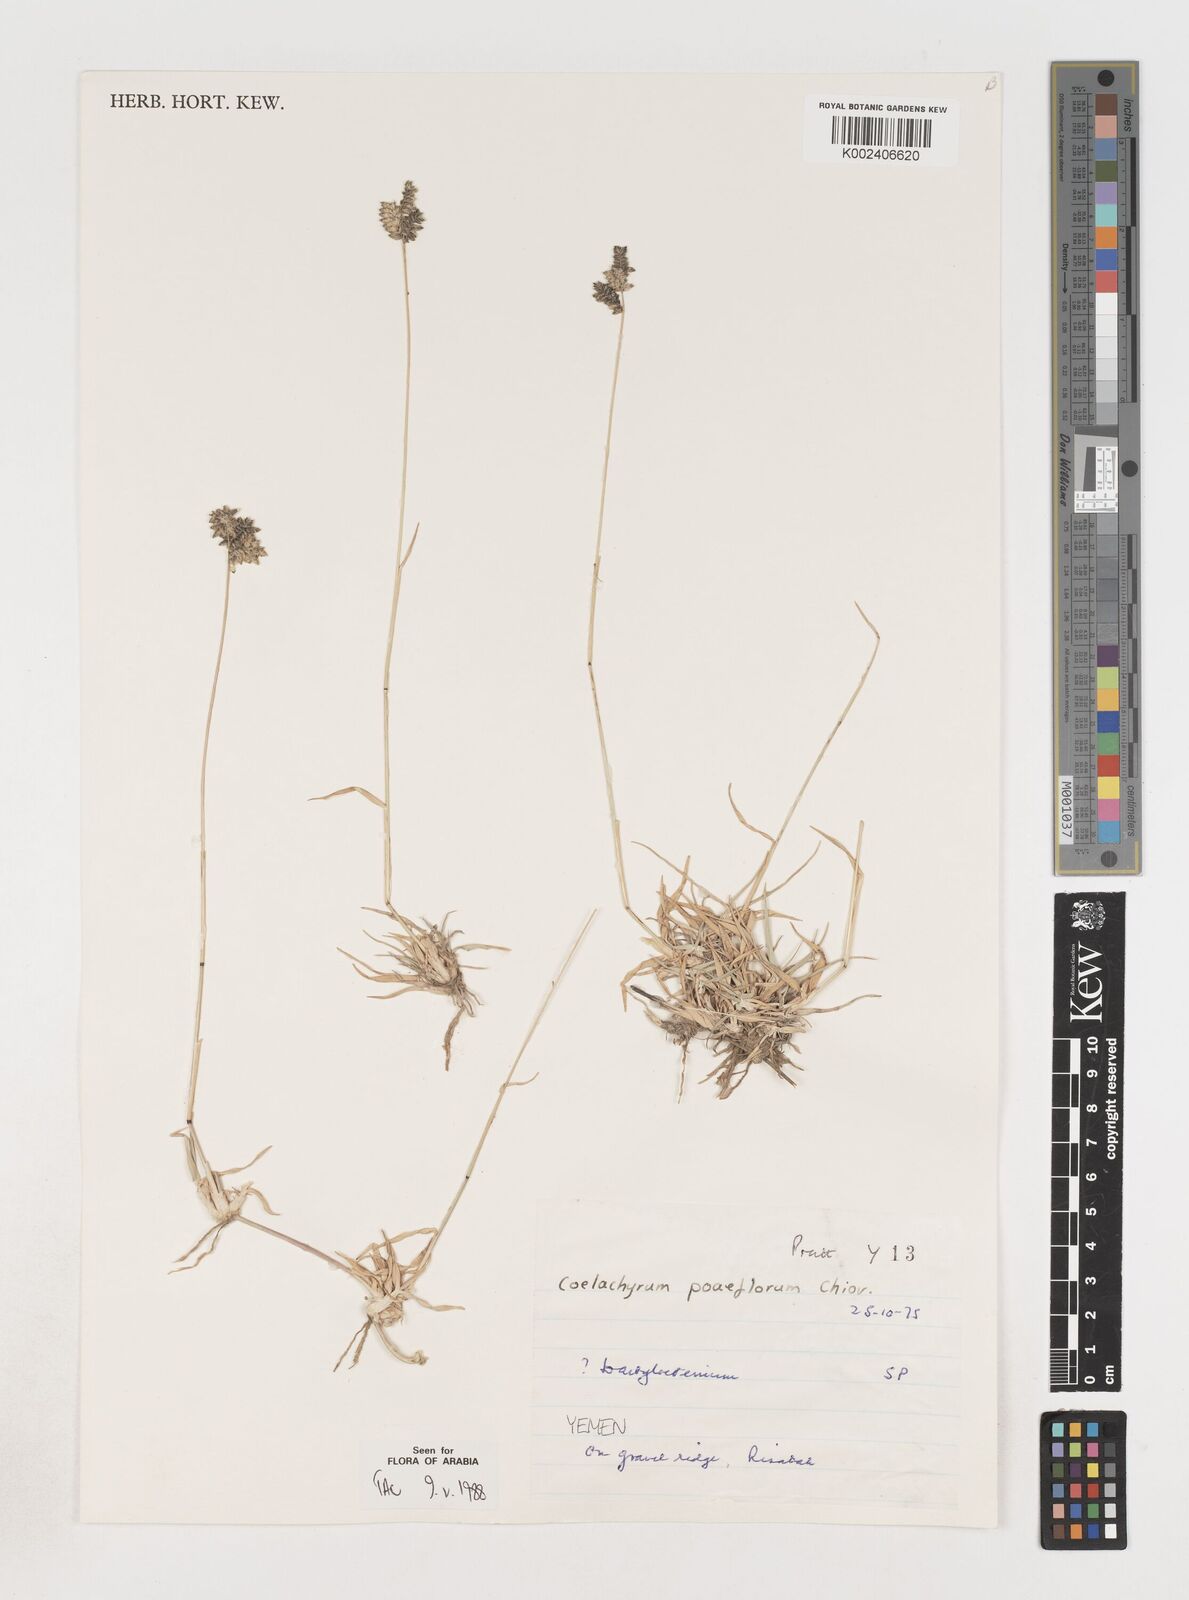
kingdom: Plantae
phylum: Tracheophyta
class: Liliopsida
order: Poales
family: Poaceae
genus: Coelachyrum
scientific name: Coelachyrum poiflorum
